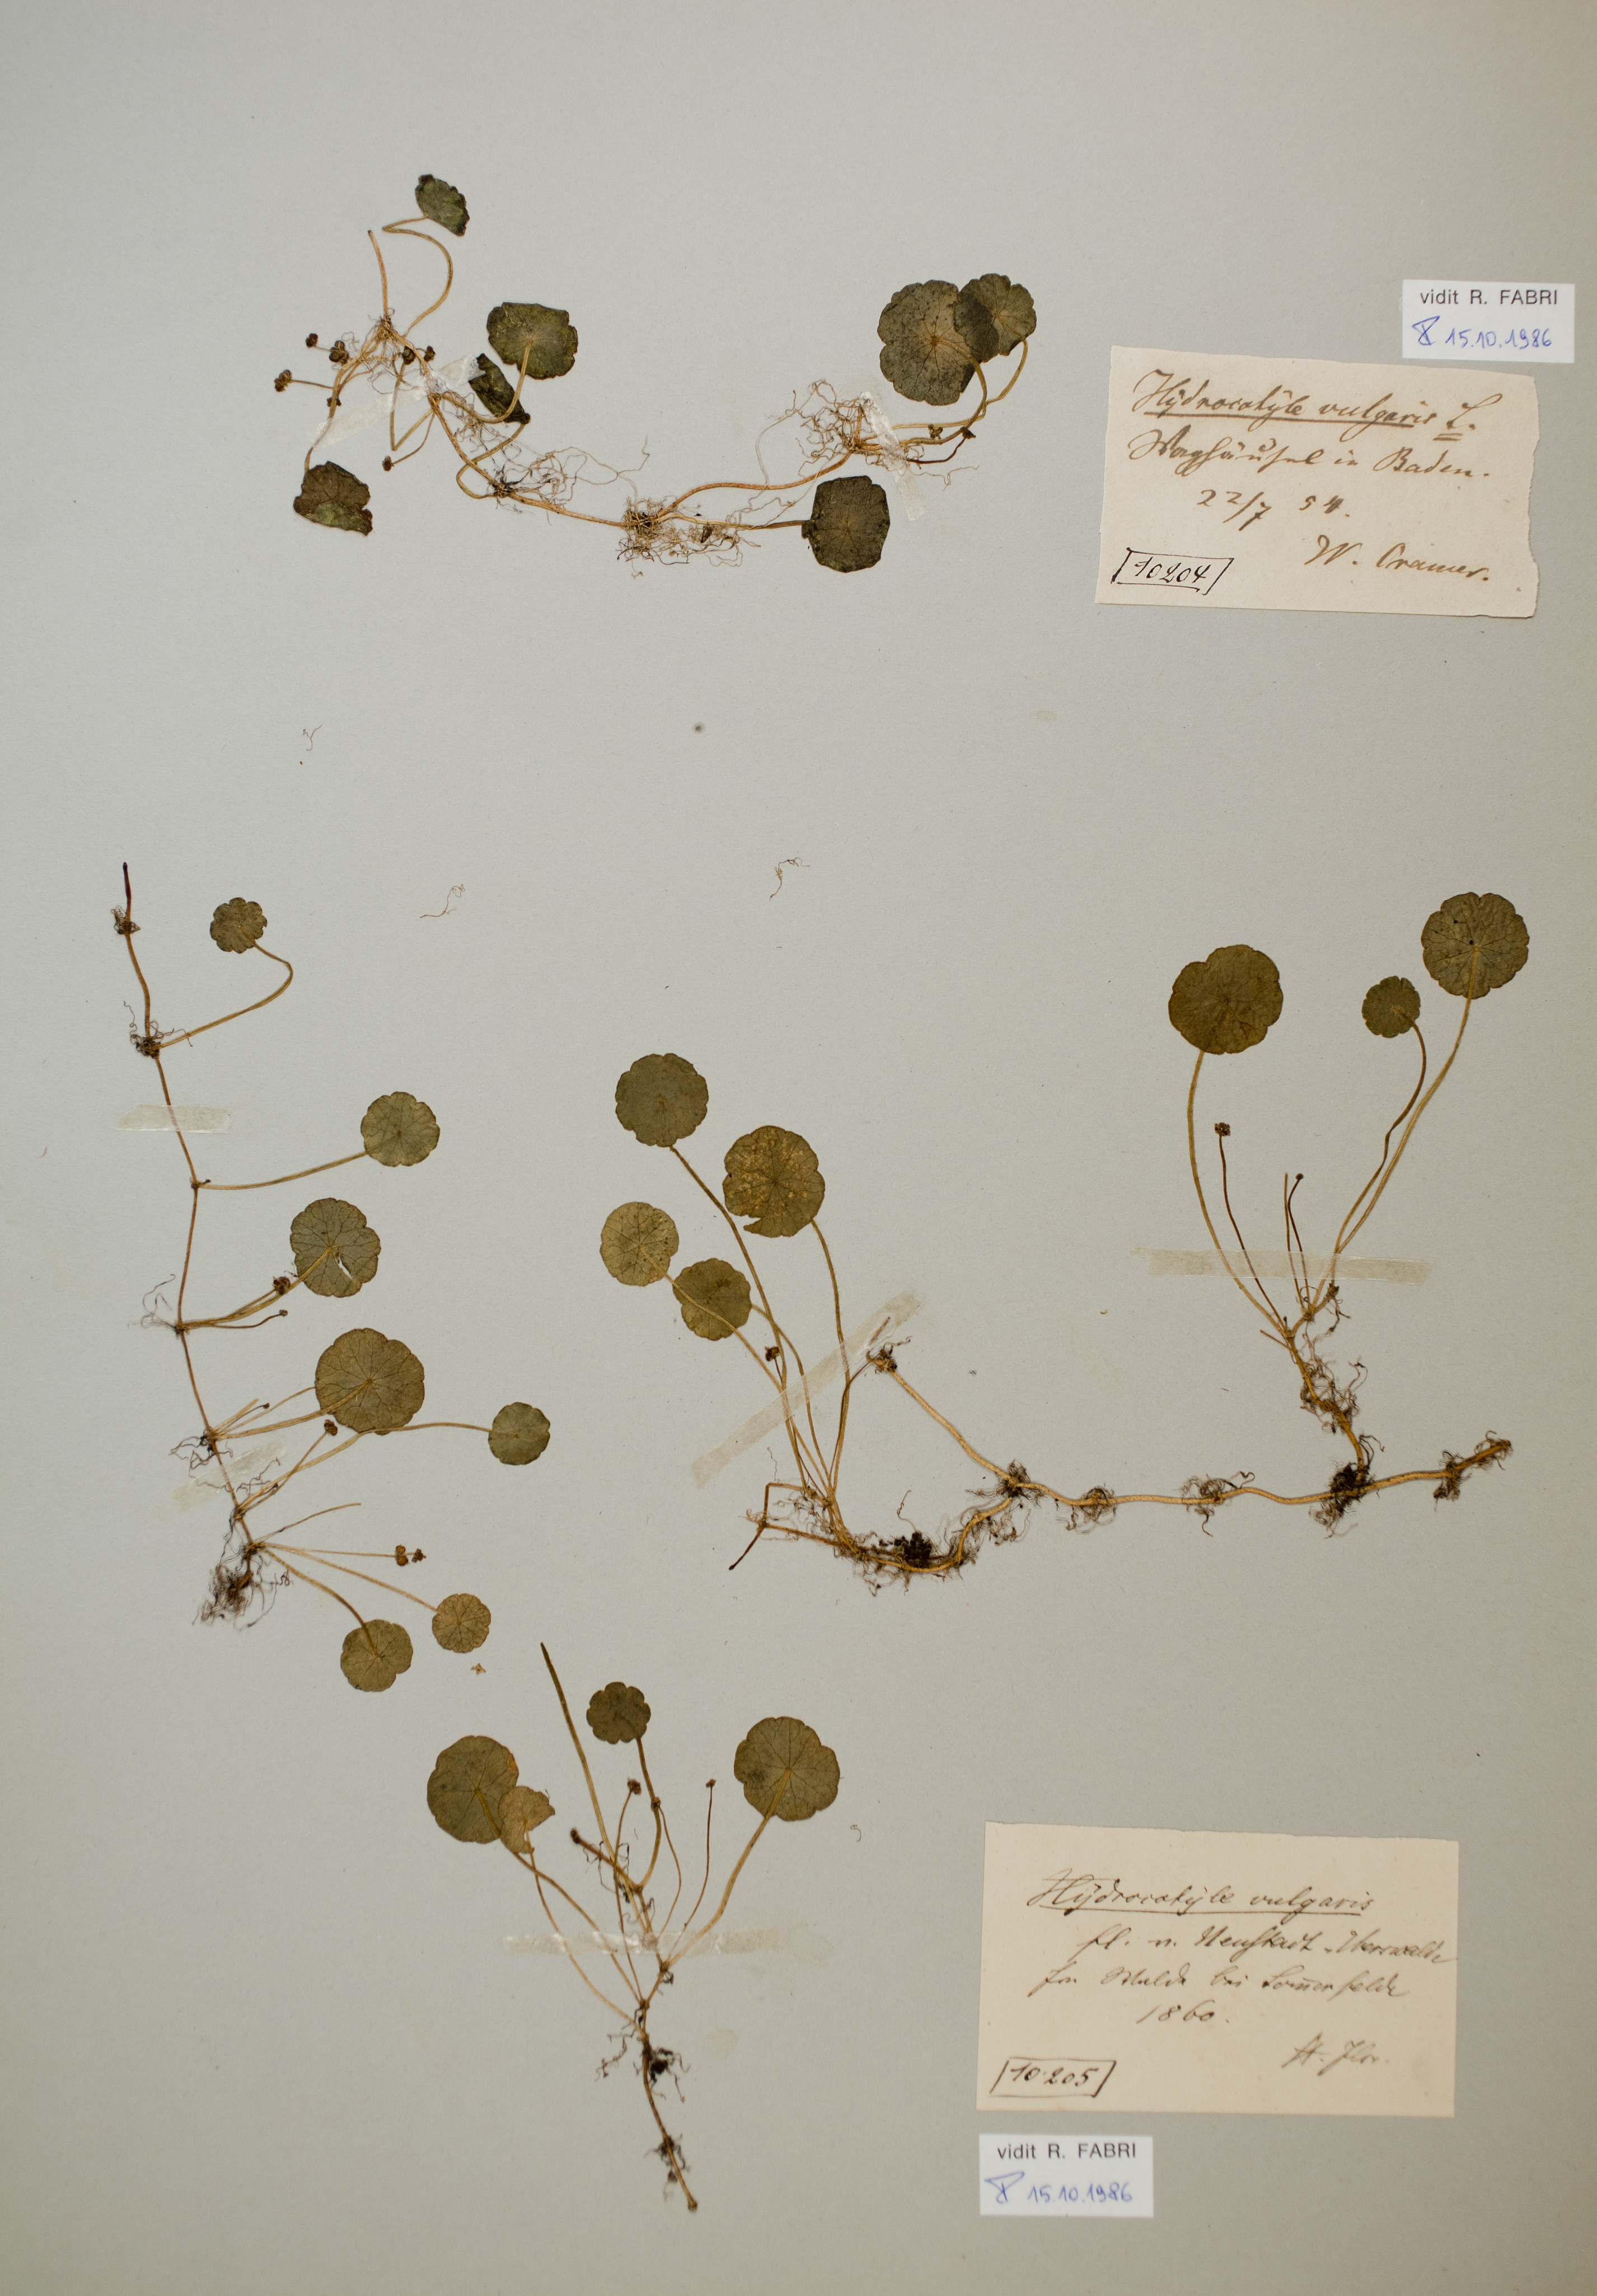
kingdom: Plantae
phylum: Tracheophyta
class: Magnoliopsida
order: Apiales
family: Araliaceae
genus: Hydrocotyle
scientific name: Hydrocotyle vulgaris
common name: Marsh pennywort
